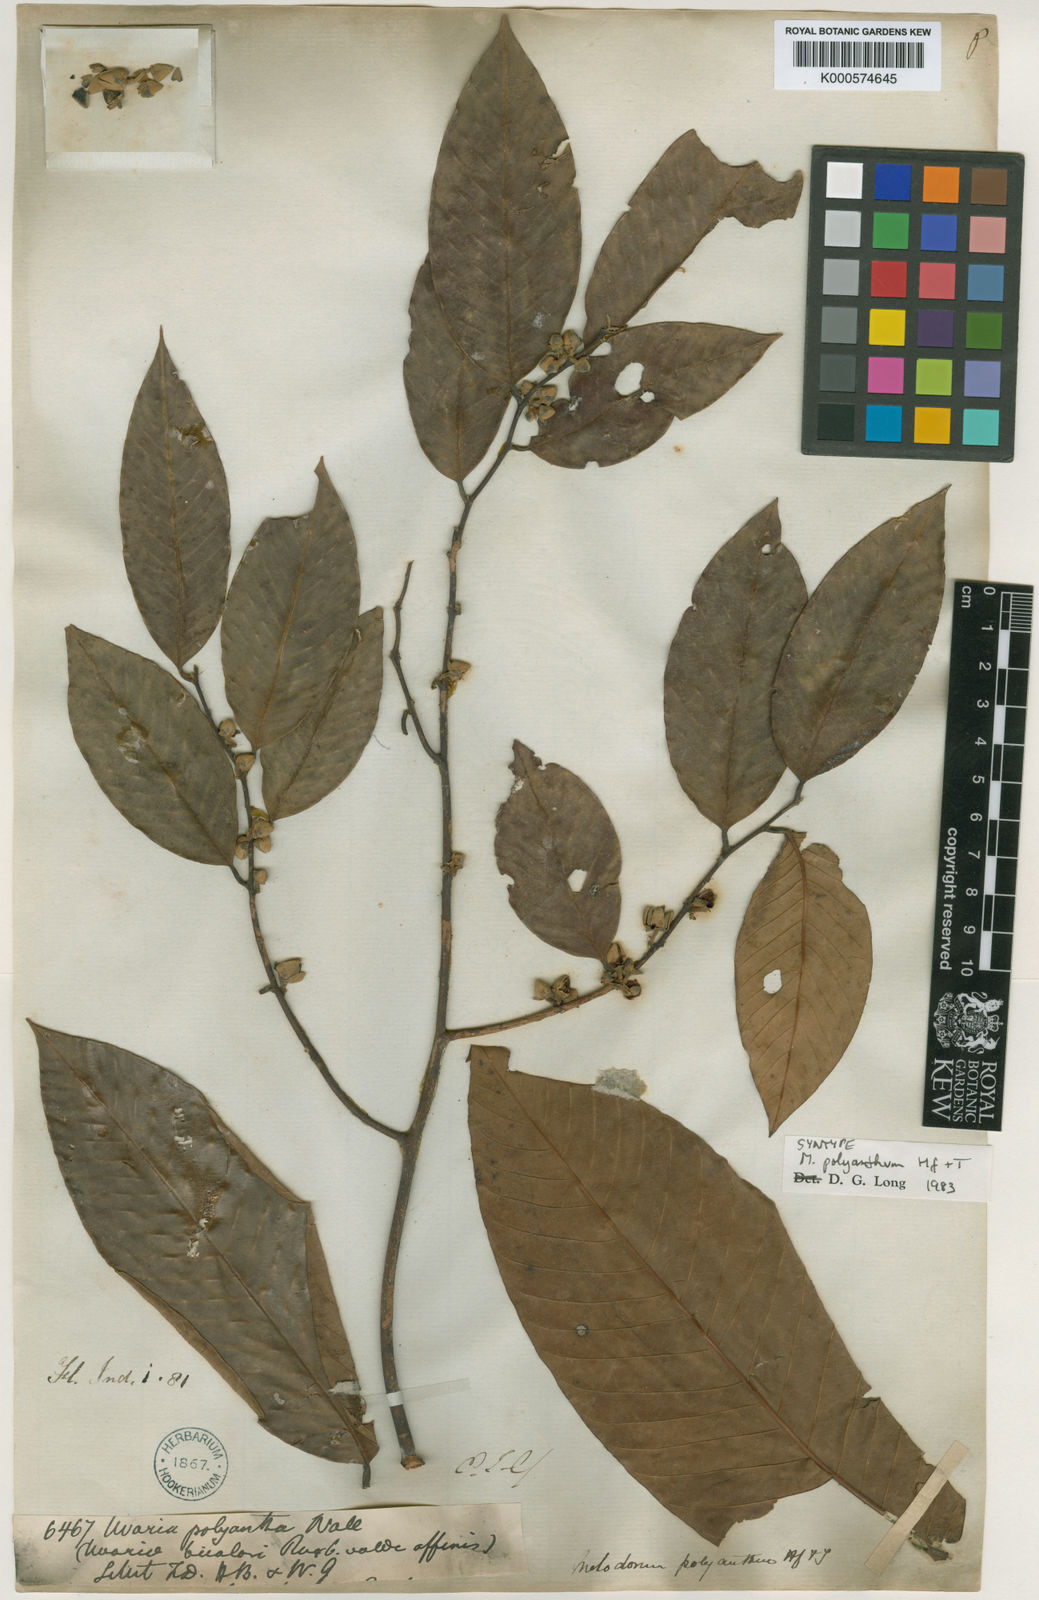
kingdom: Plantae
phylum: Tracheophyta
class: Magnoliopsida
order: Magnoliales
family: Annonaceae
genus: Fissistigma
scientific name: Fissistigma polyanthum
